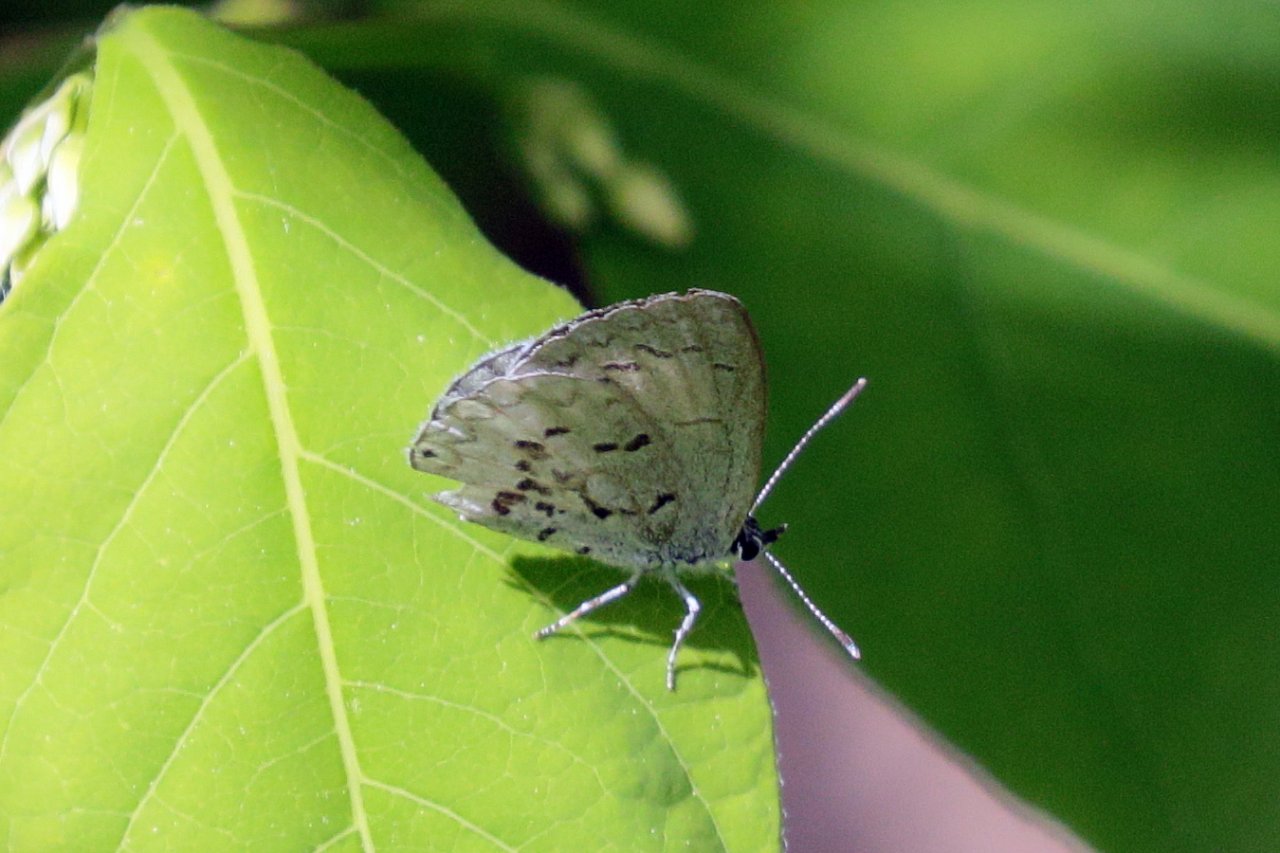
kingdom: Animalia
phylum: Arthropoda
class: Insecta
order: Lepidoptera
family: Lycaenidae
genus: Celastrina
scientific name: Celastrina lucia
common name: Northern Spring Azure
